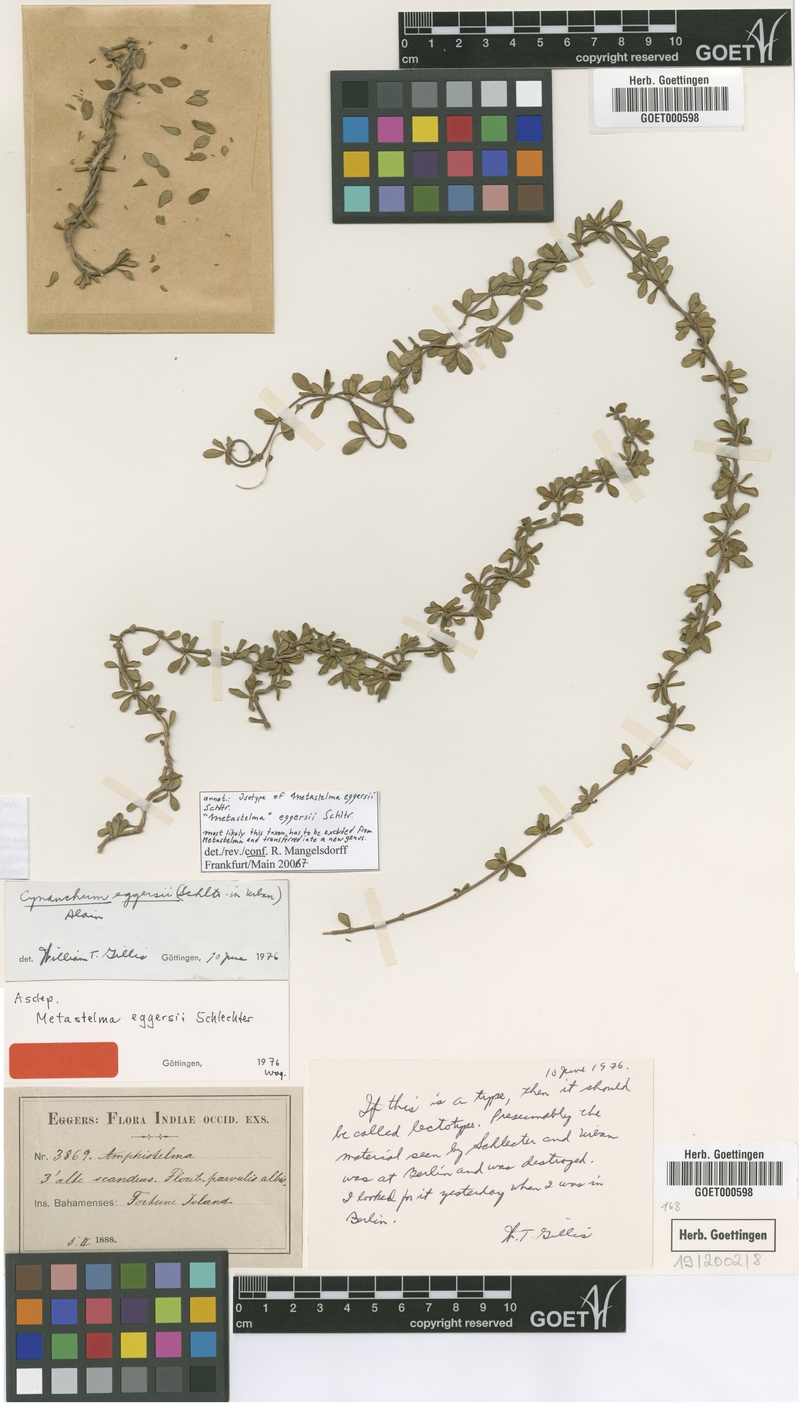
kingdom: Plantae
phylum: Tracheophyta
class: Magnoliopsida
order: Gentianales
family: Apocynaceae
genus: Anemotrochus
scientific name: Anemotrochus eggersii
